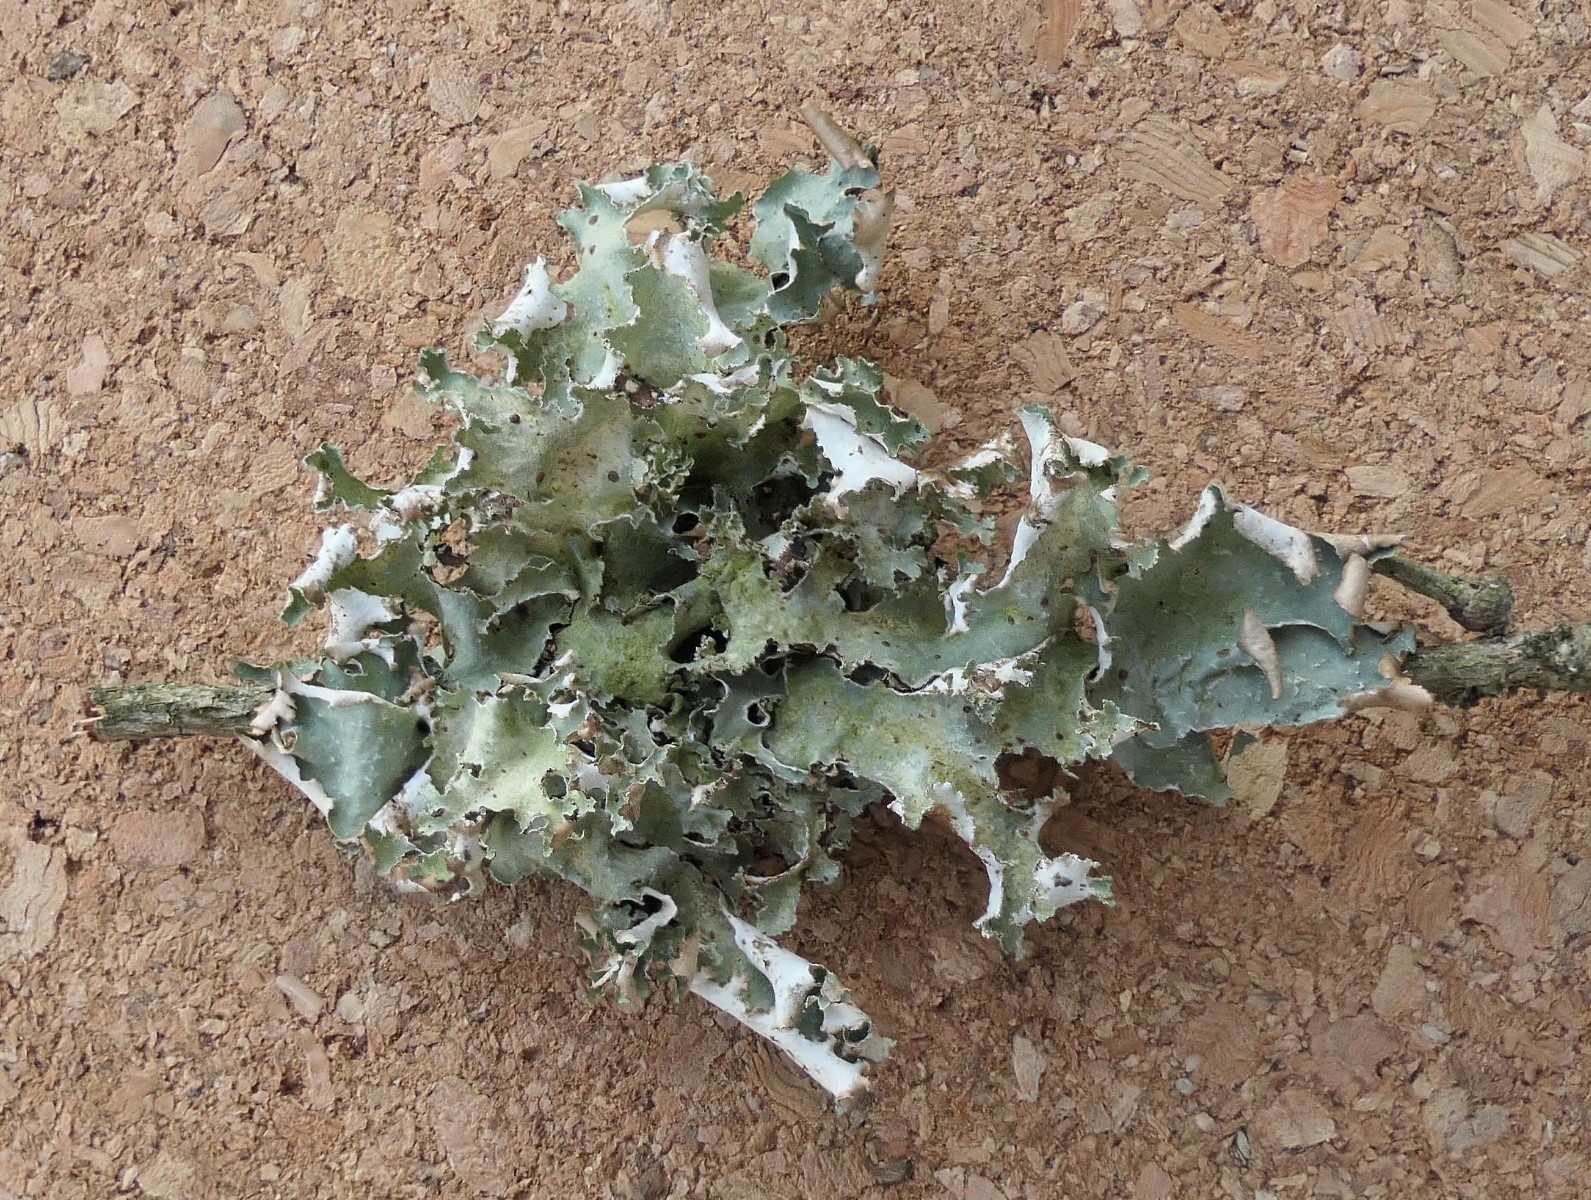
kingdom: Fungi
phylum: Ascomycota
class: Lecanoromycetes
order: Lecanorales
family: Parmeliaceae
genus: Platismatia
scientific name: Platismatia glauca
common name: blågrå papirlav
